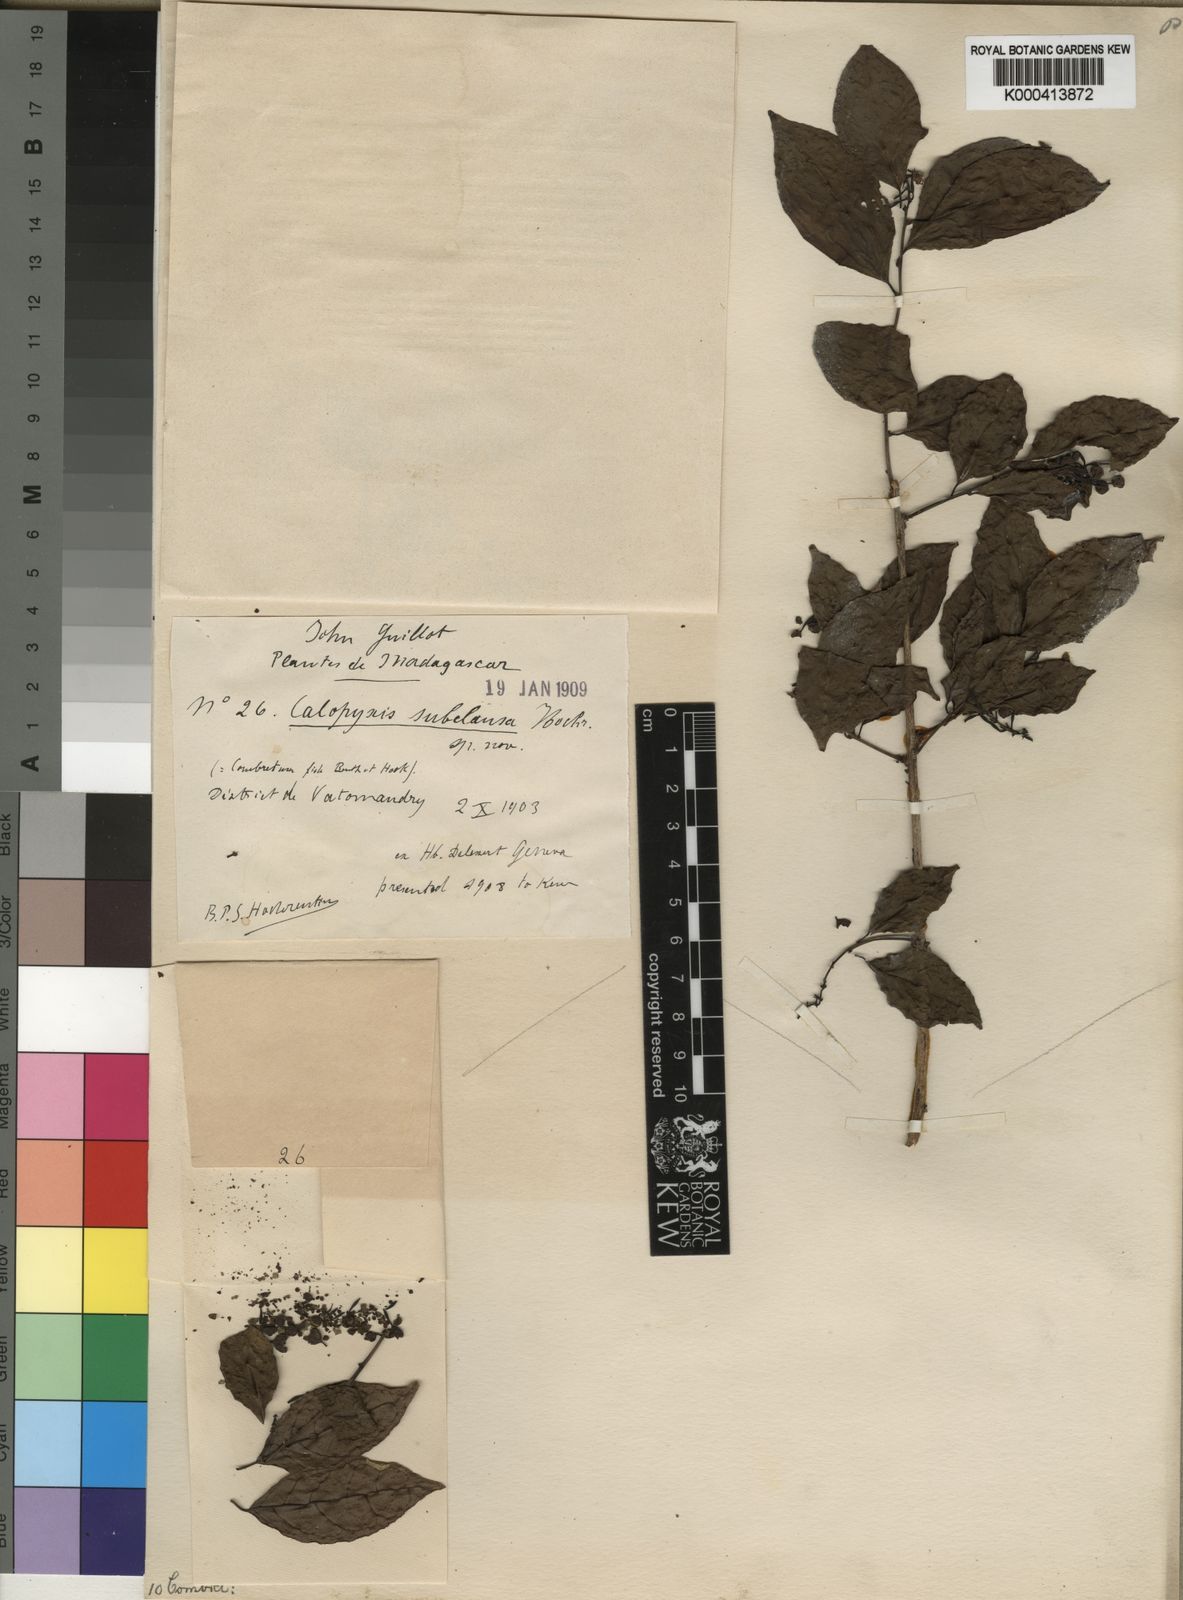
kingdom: Plantae
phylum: Tracheophyta
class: Magnoliopsida
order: Myrtales
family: Combretaceae
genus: Combretum
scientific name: Combretum oxygonium
